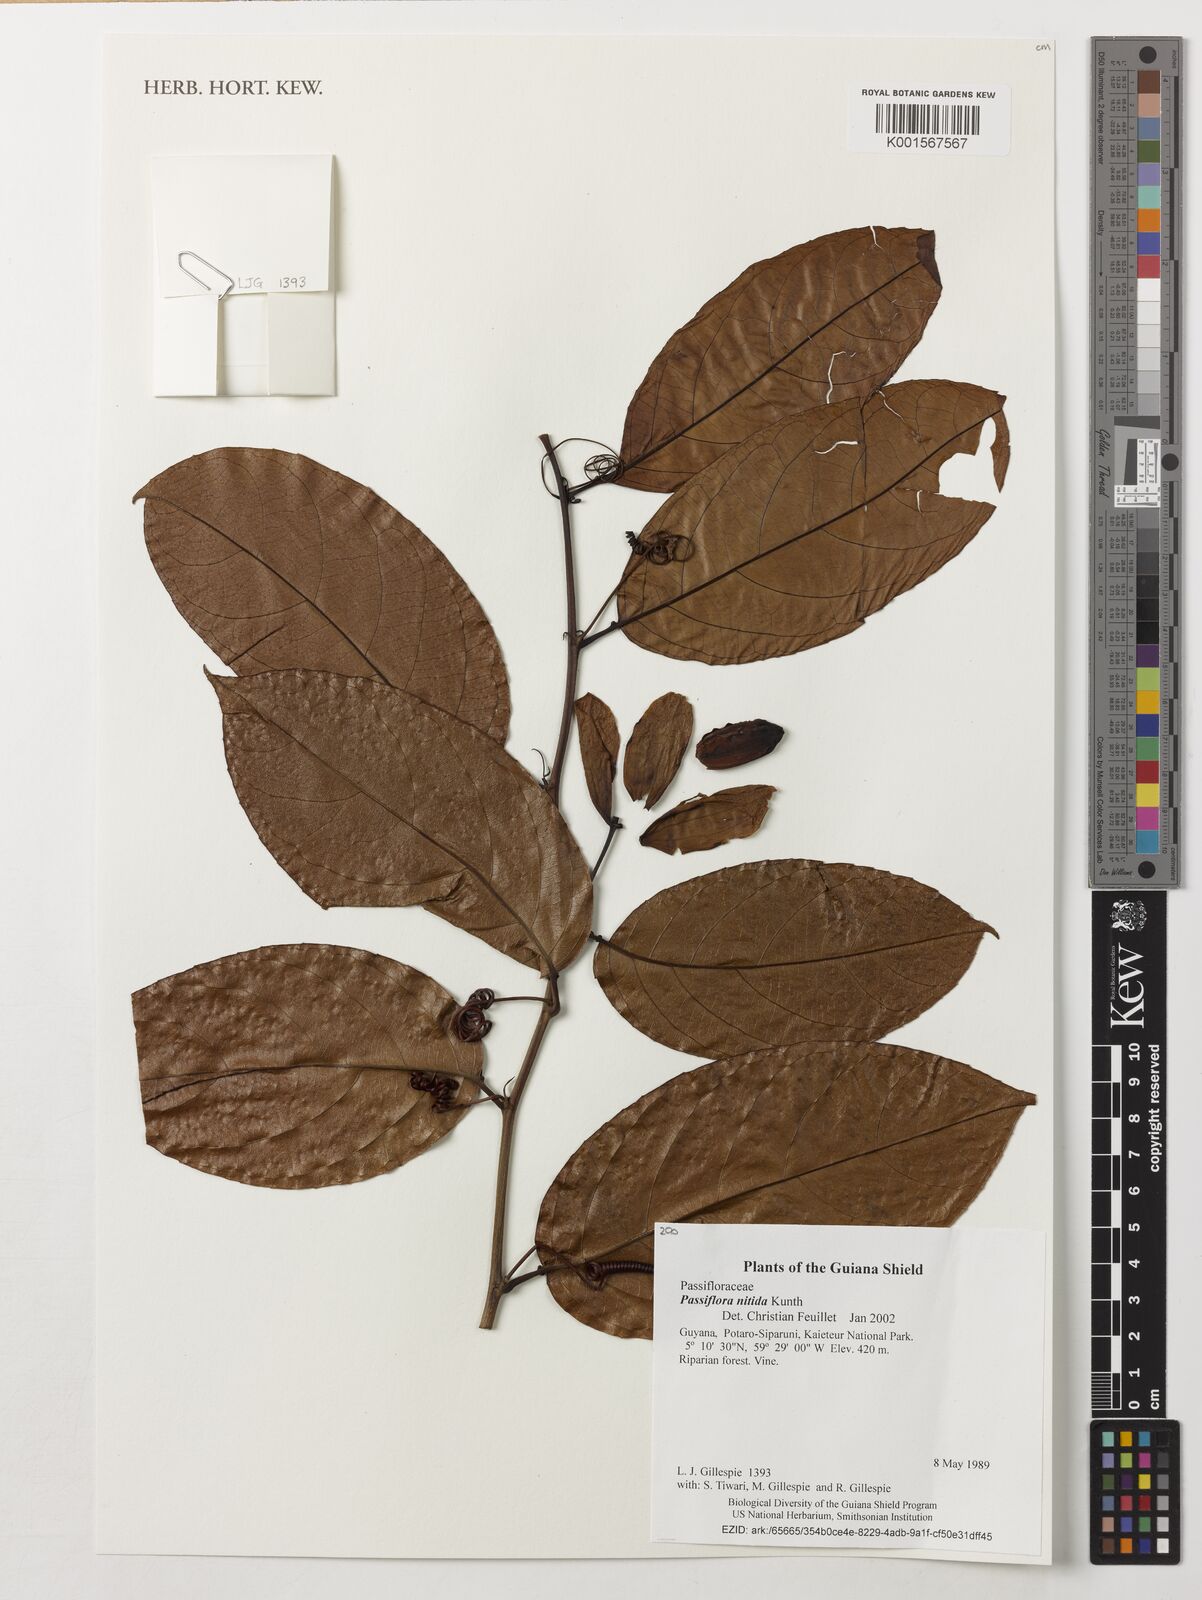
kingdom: Plantae
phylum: Tracheophyta
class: Magnoliopsida
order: Malpighiales
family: Passifloraceae
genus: Passiflora
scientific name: Passiflora nitida
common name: Bell-apple
